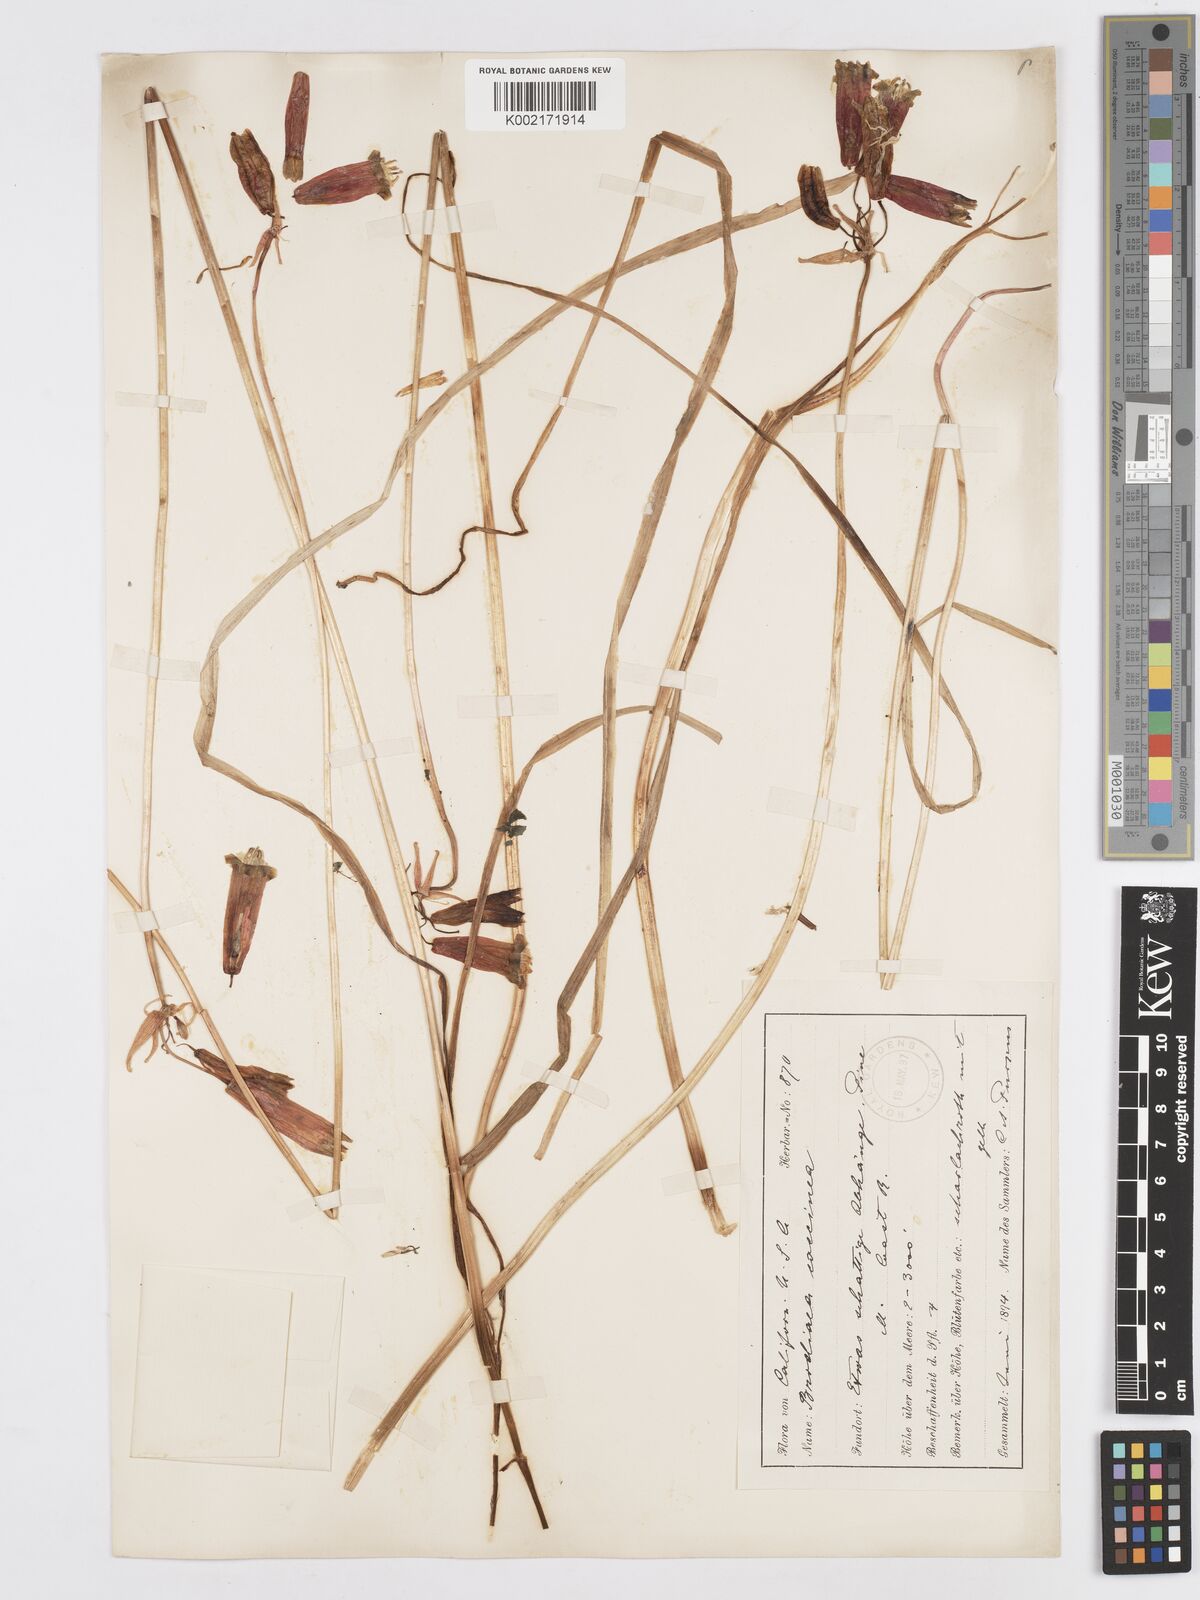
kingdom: Plantae
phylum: Tracheophyta
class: Liliopsida
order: Asparagales
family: Asparagaceae
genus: Dichelostemma
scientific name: Dichelostemma ida-maia
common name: Firecracker-flower
